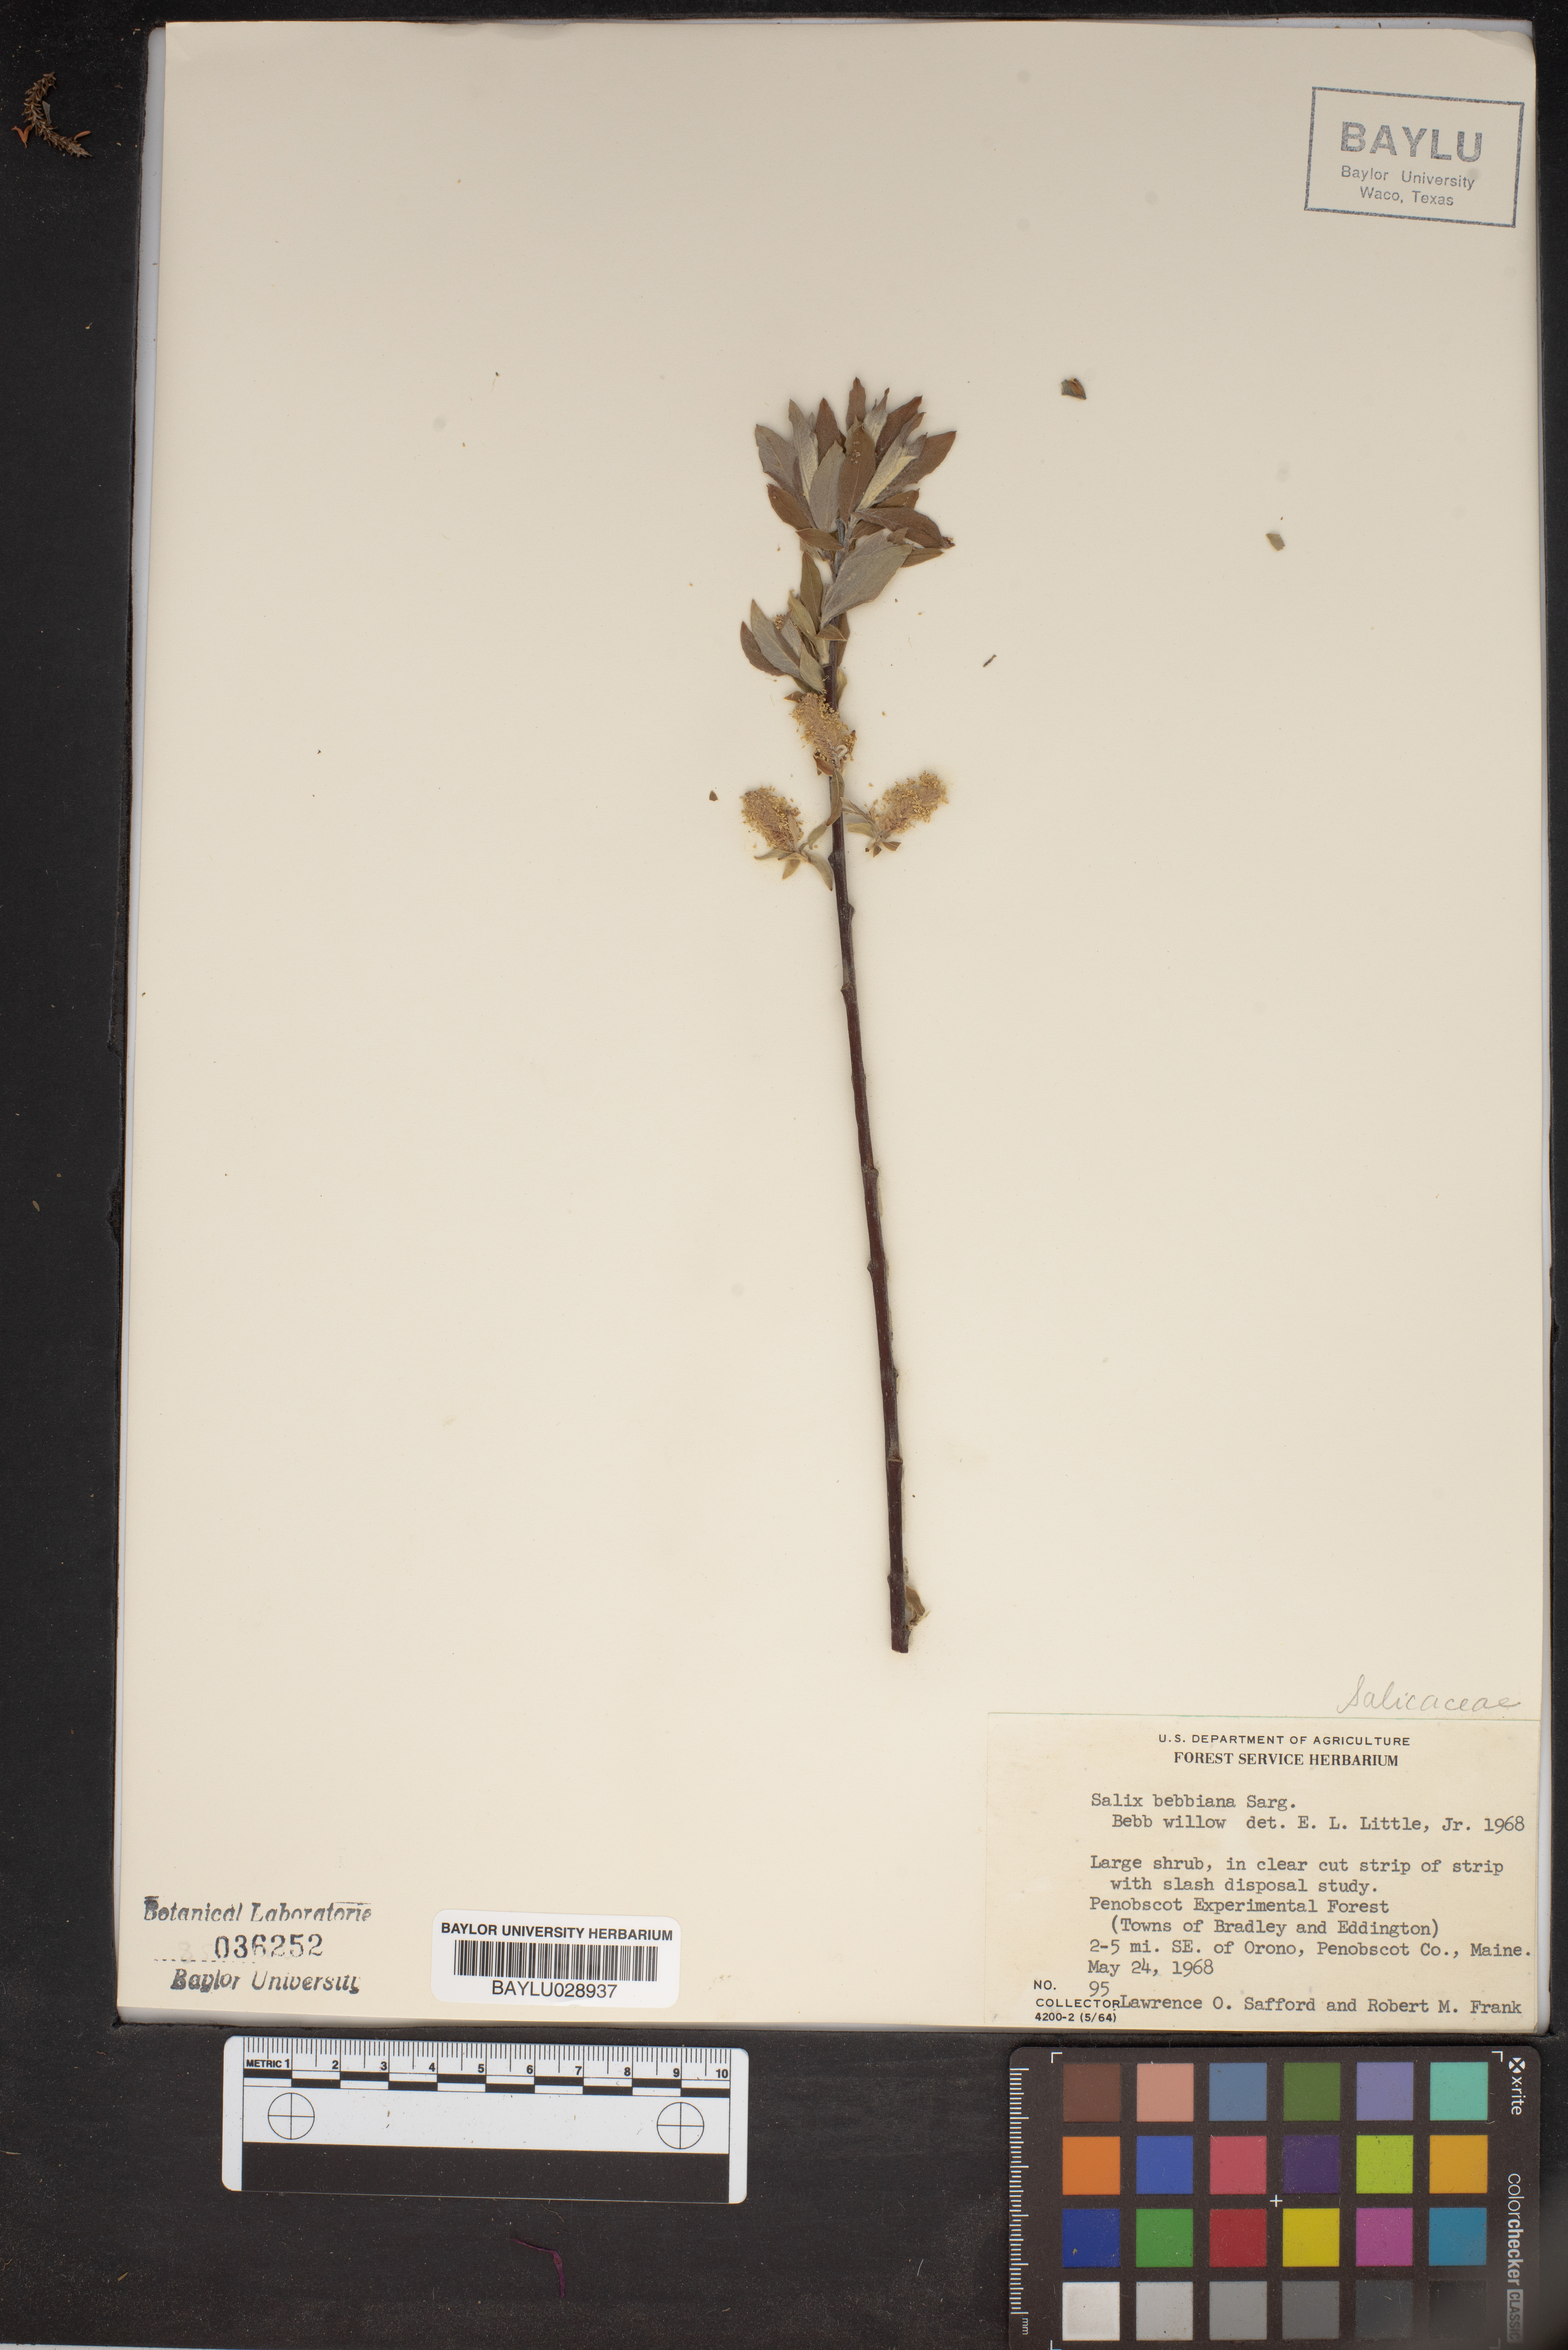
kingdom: Plantae
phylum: Tracheophyta
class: Magnoliopsida
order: Malpighiales
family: Salicaceae
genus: Salix
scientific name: Salix bebbiana
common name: Bebb's willow
